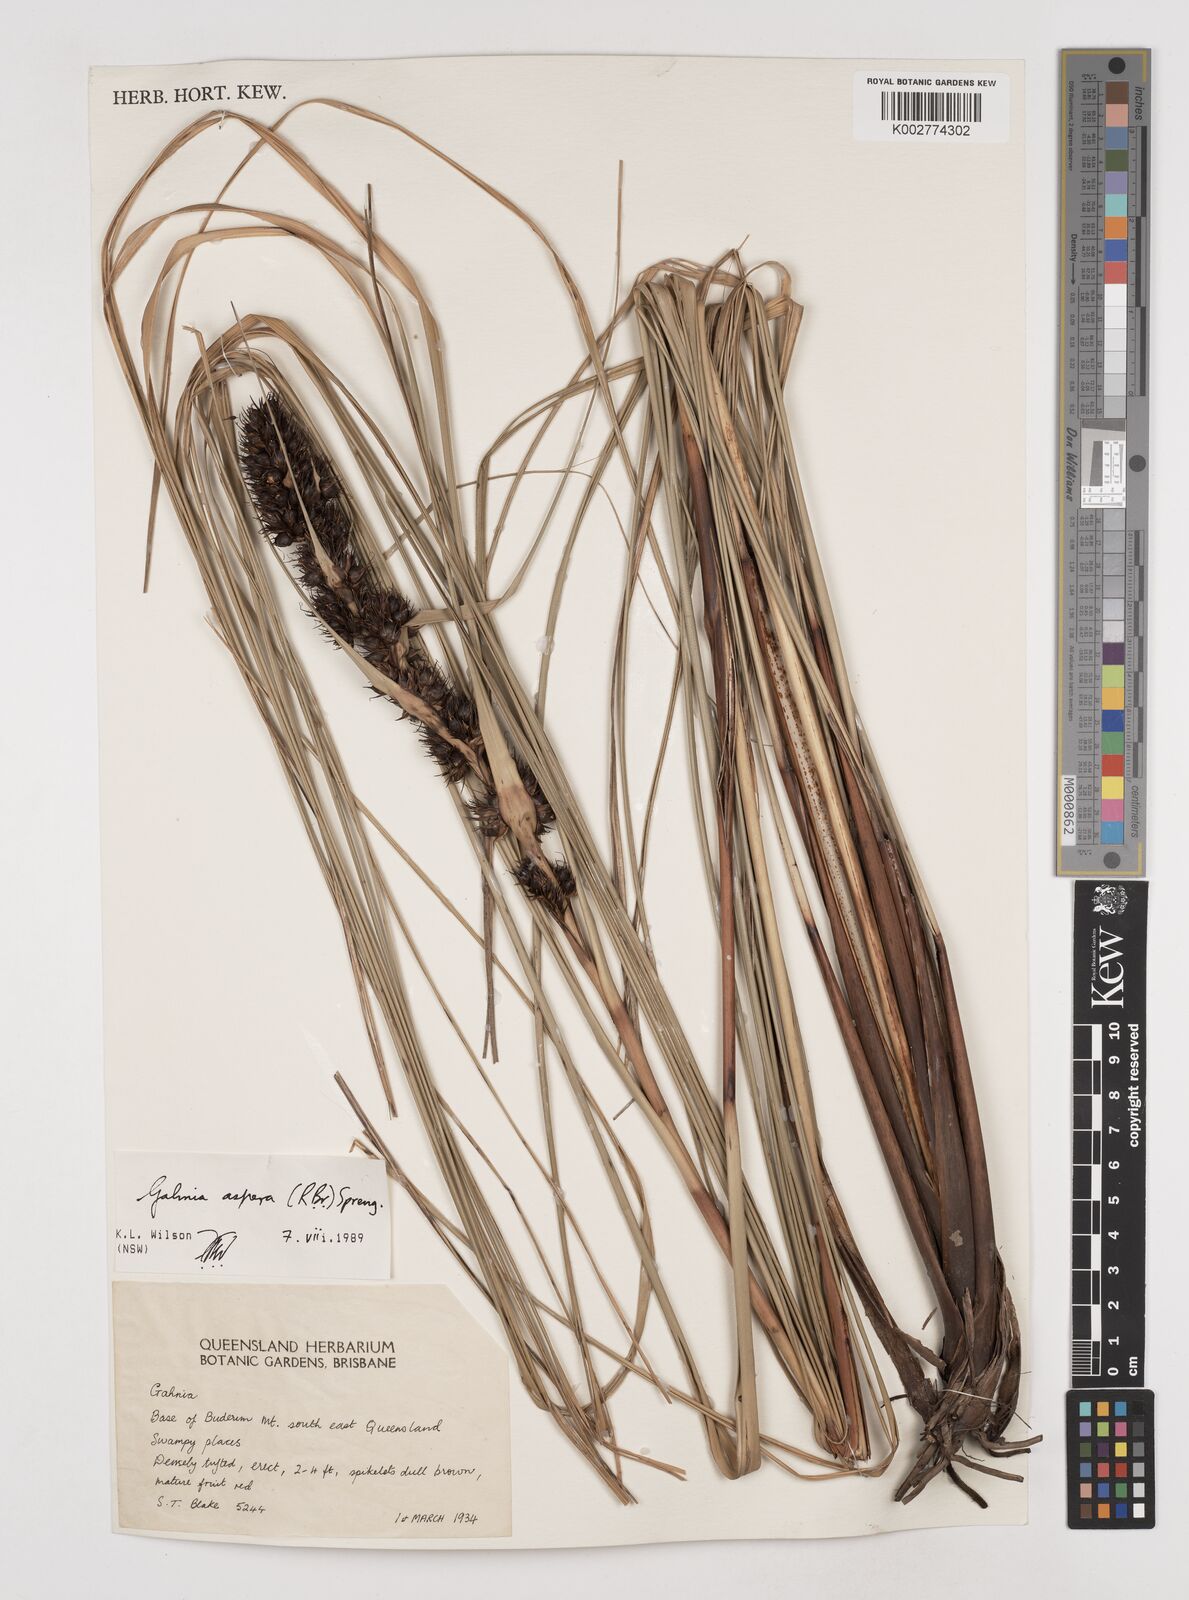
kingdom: Plantae
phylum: Tracheophyta
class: Liliopsida
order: Poales
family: Cyperaceae
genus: Gahnia
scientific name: Gahnia aspera
